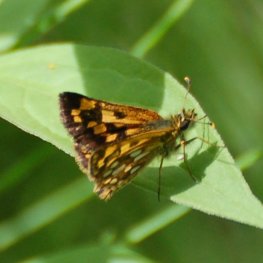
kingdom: Animalia
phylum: Arthropoda
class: Insecta
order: Lepidoptera
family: Hesperiidae
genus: Carterocephalus
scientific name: Carterocephalus palaemon
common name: Chequered Skipper
